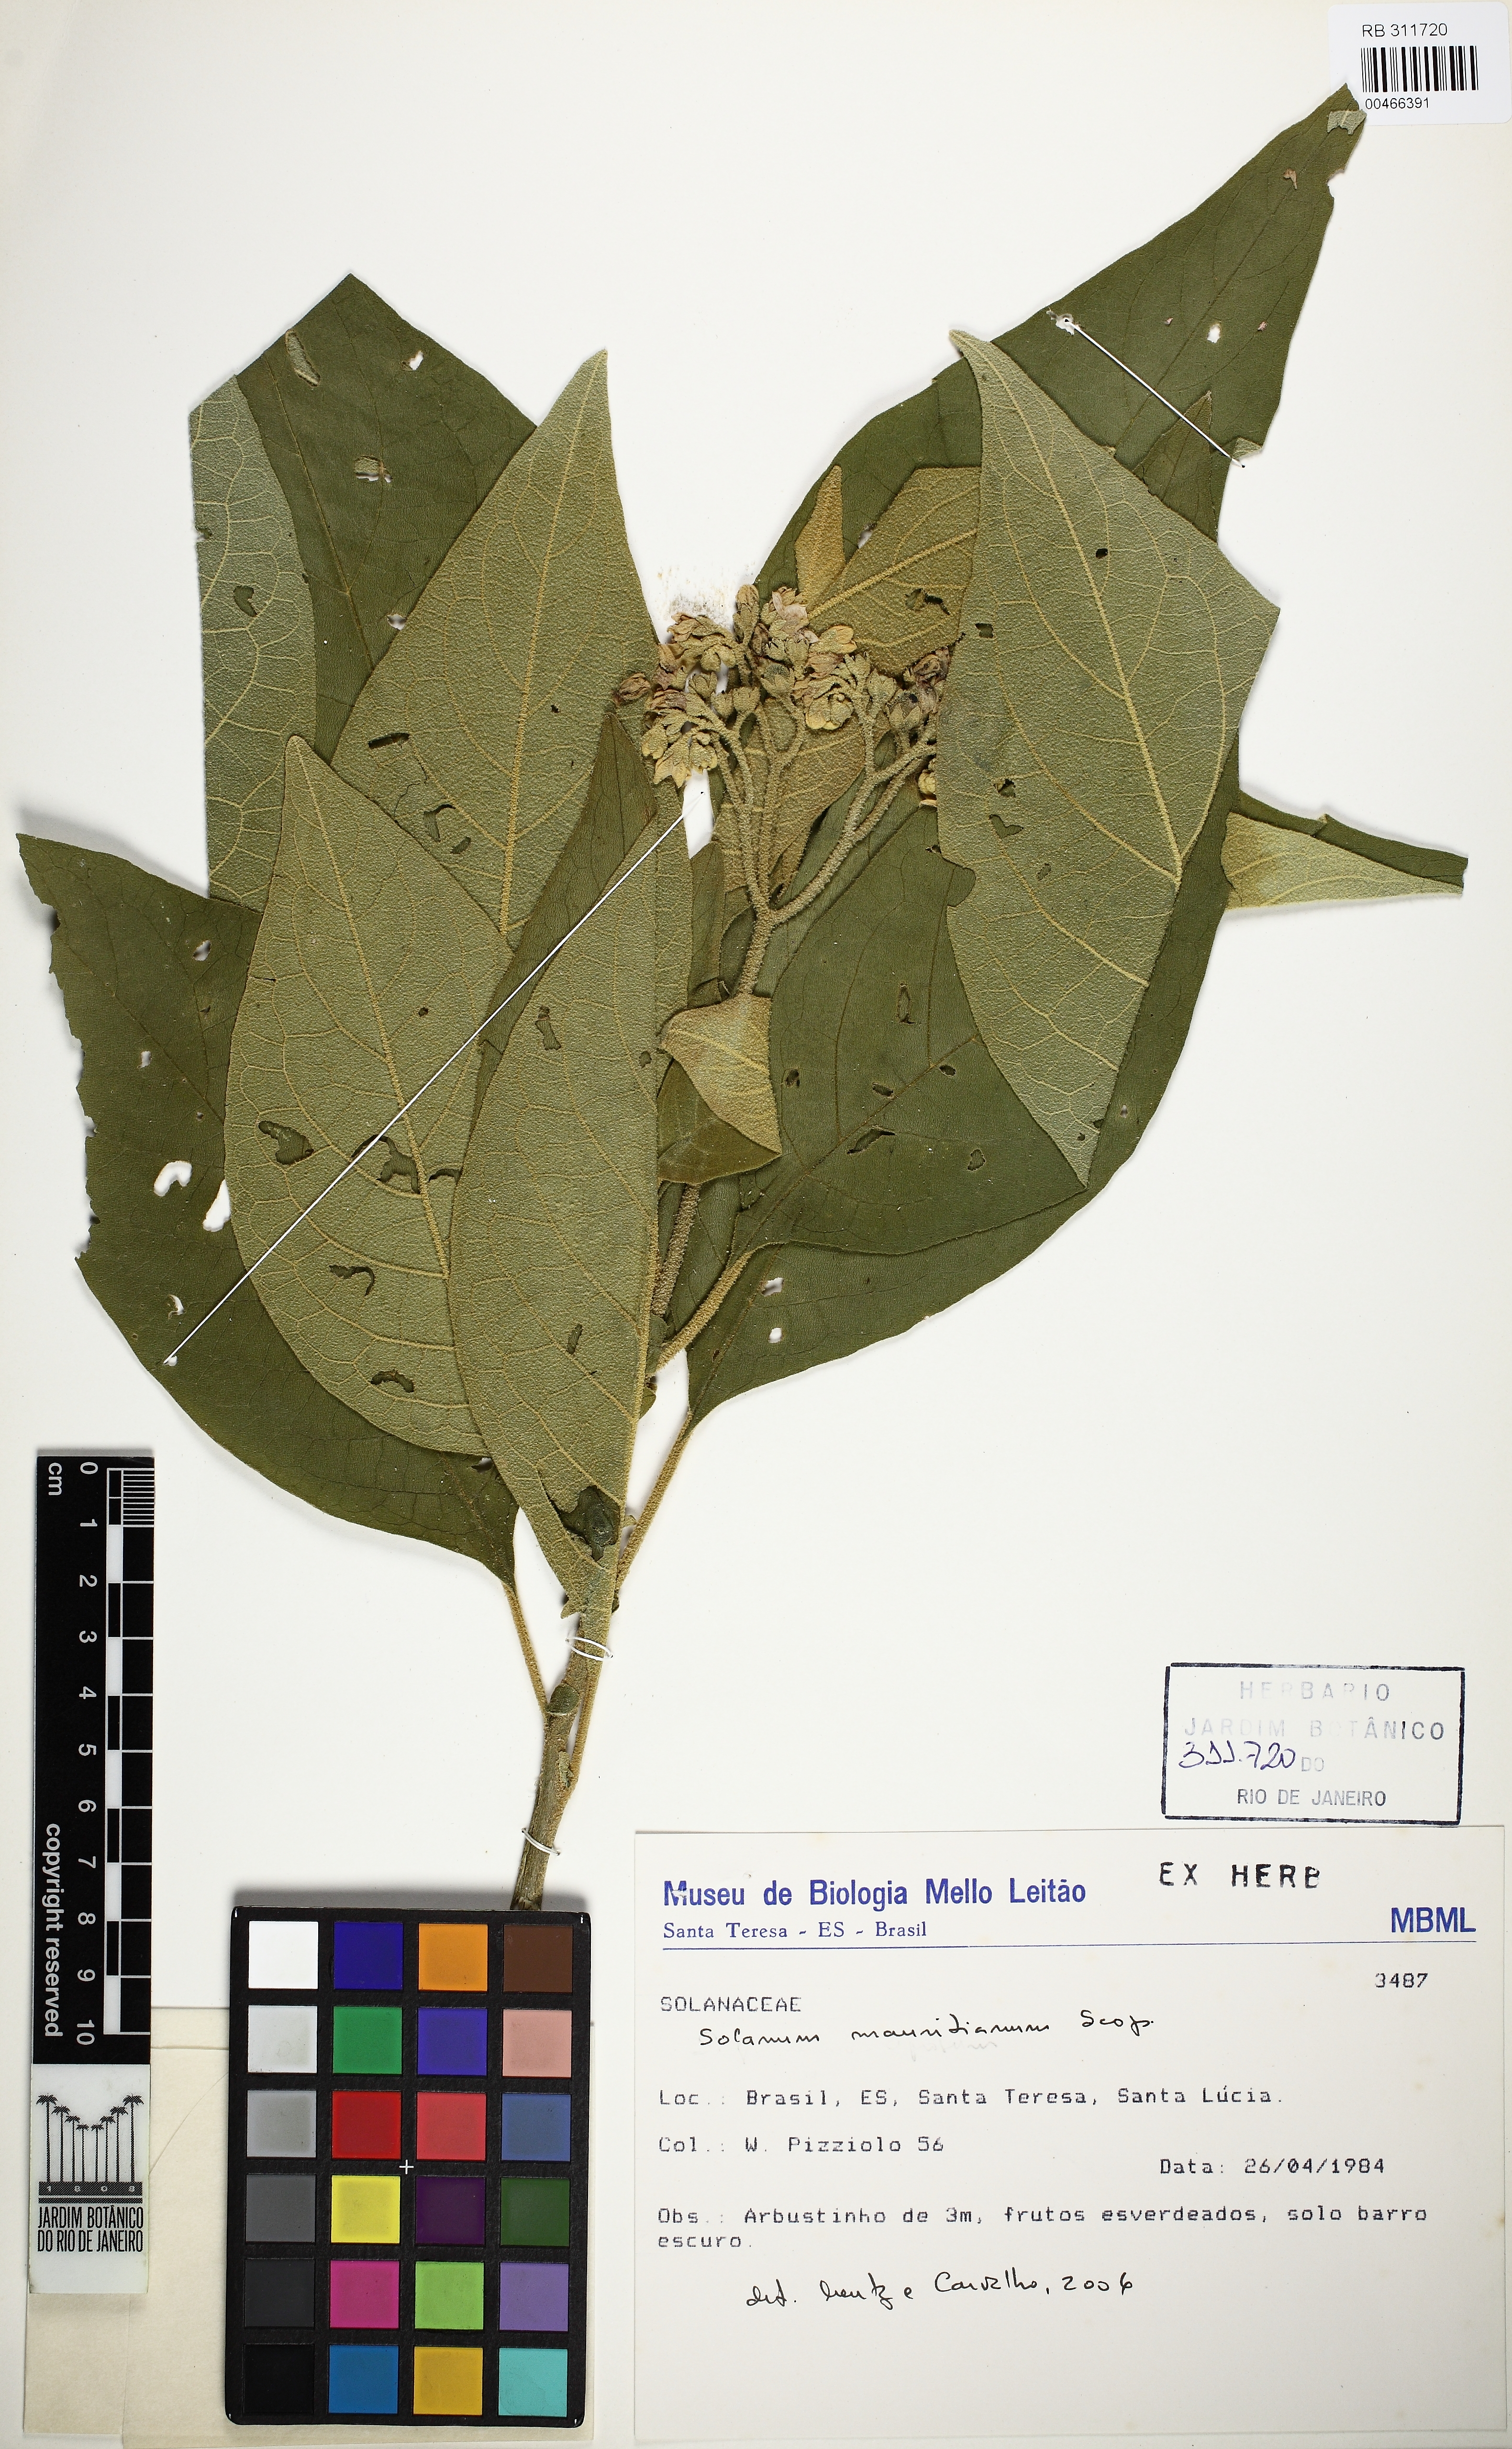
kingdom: Plantae
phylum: Tracheophyta
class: Magnoliopsida
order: Solanales
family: Solanaceae
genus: Solanum
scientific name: Solanum mauritianum
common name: Earleaf nightshade
